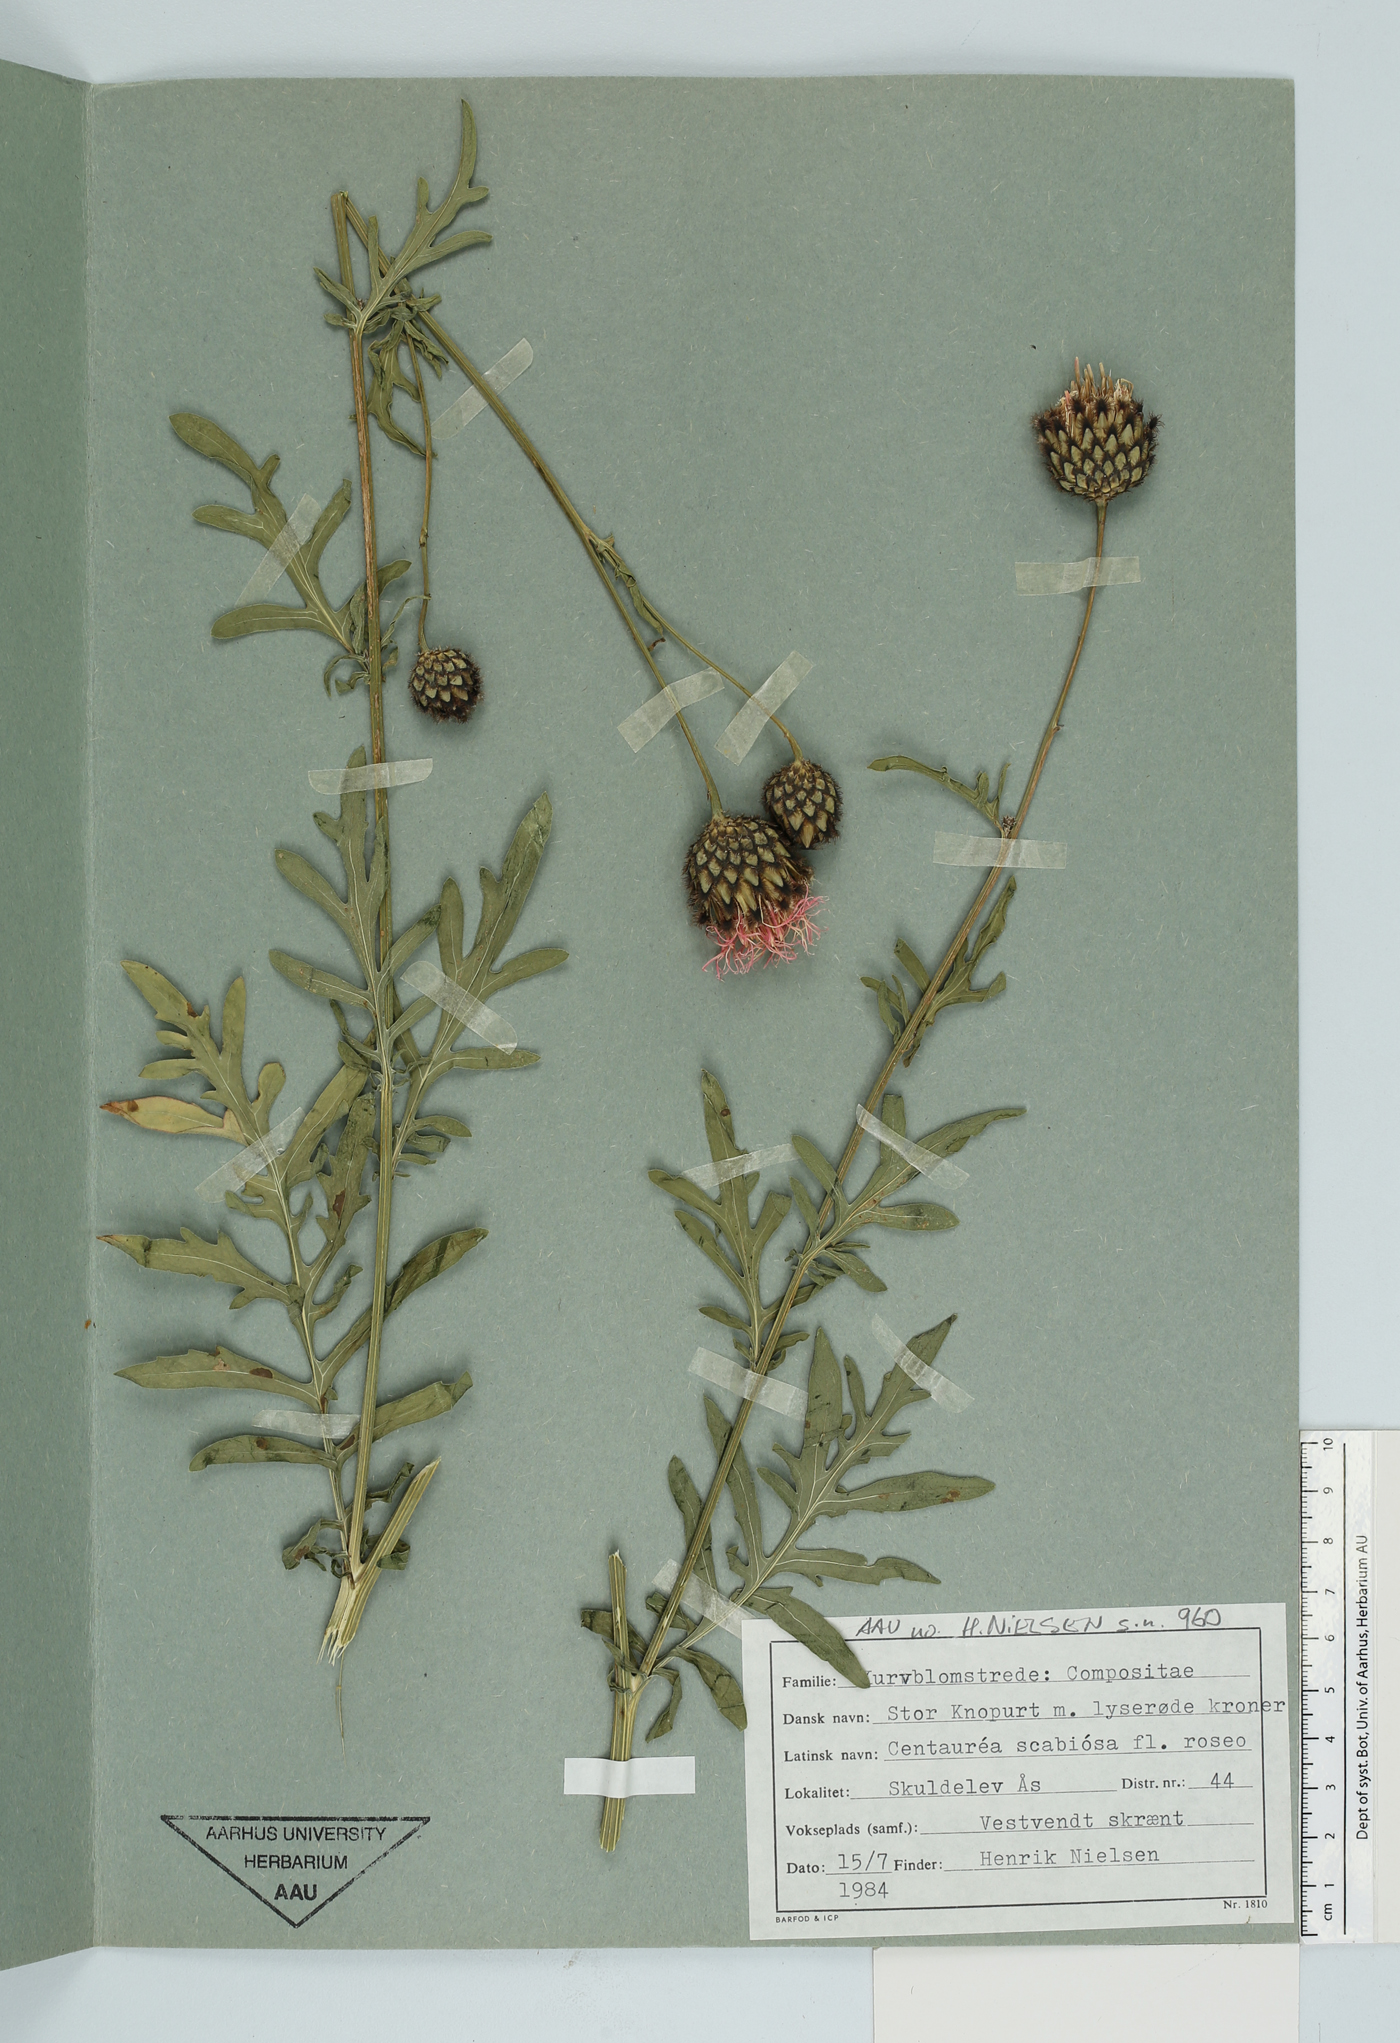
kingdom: Plantae
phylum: Tracheophyta
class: Magnoliopsida
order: Asterales
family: Asteraceae
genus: Centaurea
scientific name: Centaurea scabiosa
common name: Greater knapweed
